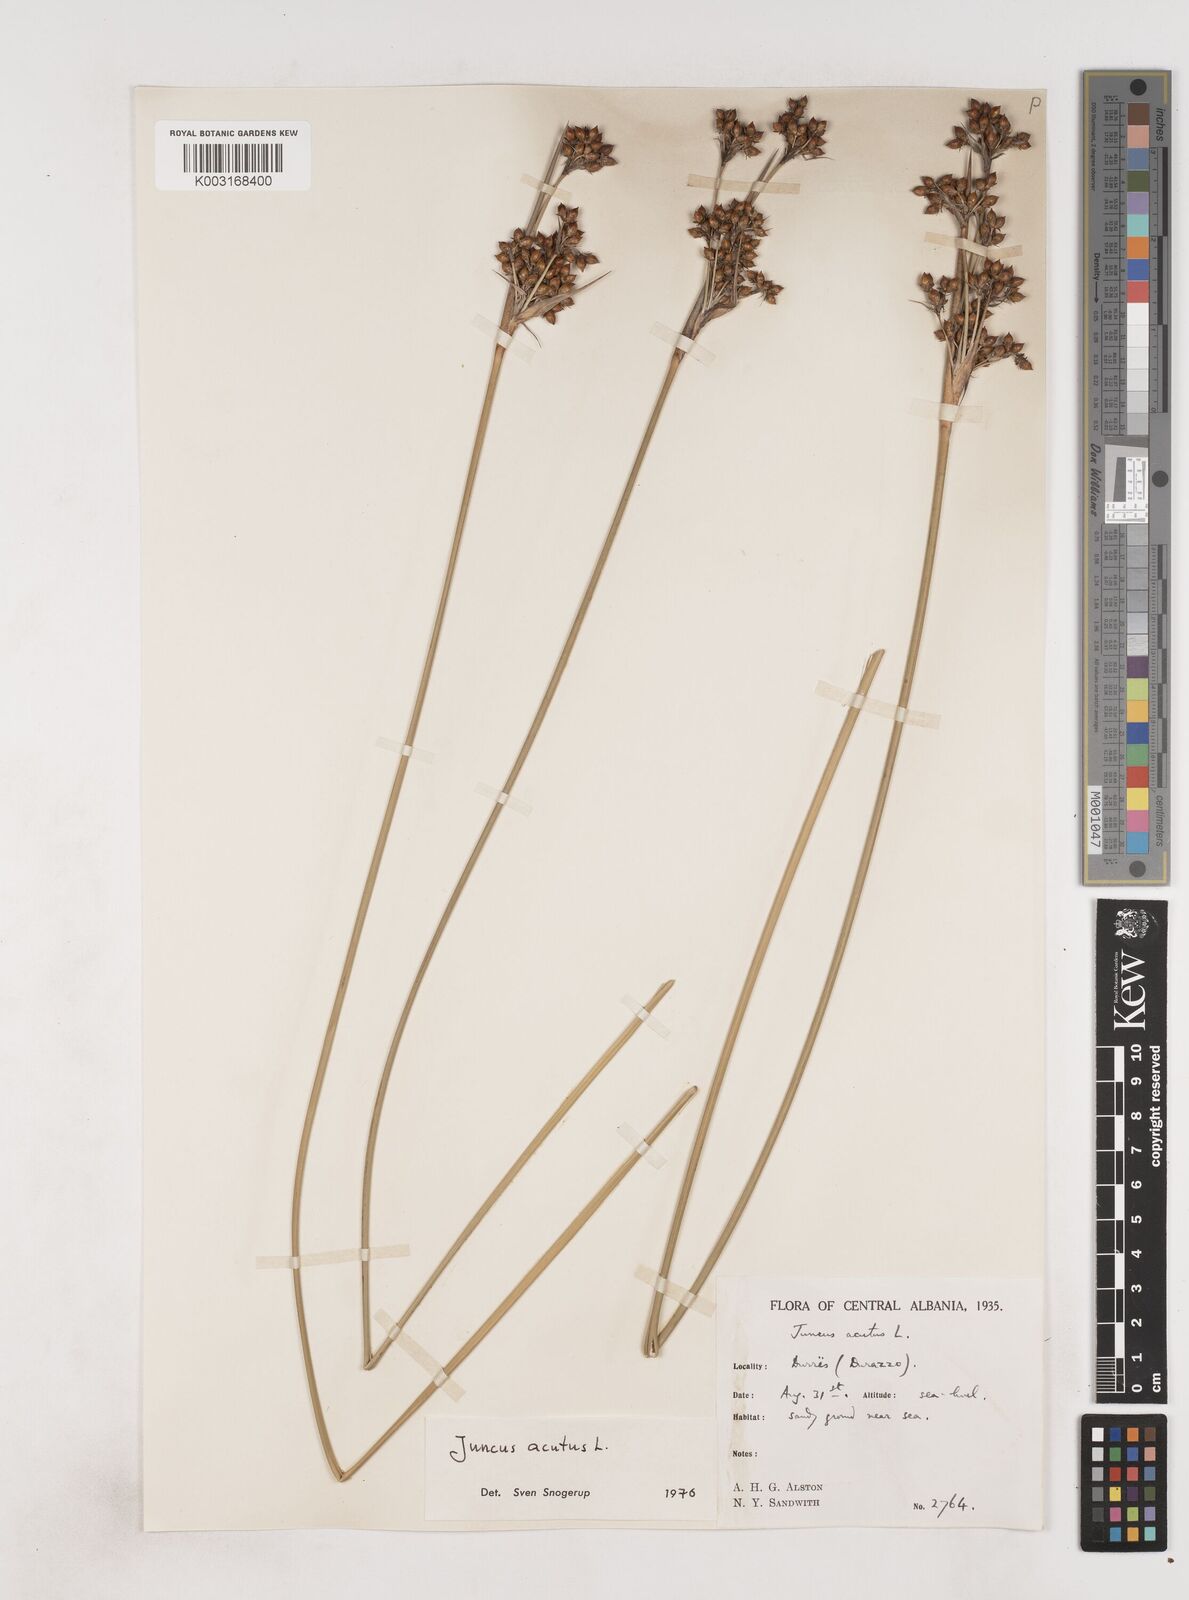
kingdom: Plantae
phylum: Tracheophyta
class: Liliopsida
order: Poales
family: Juncaceae
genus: Juncus
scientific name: Juncus acutus
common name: Sharp rush
